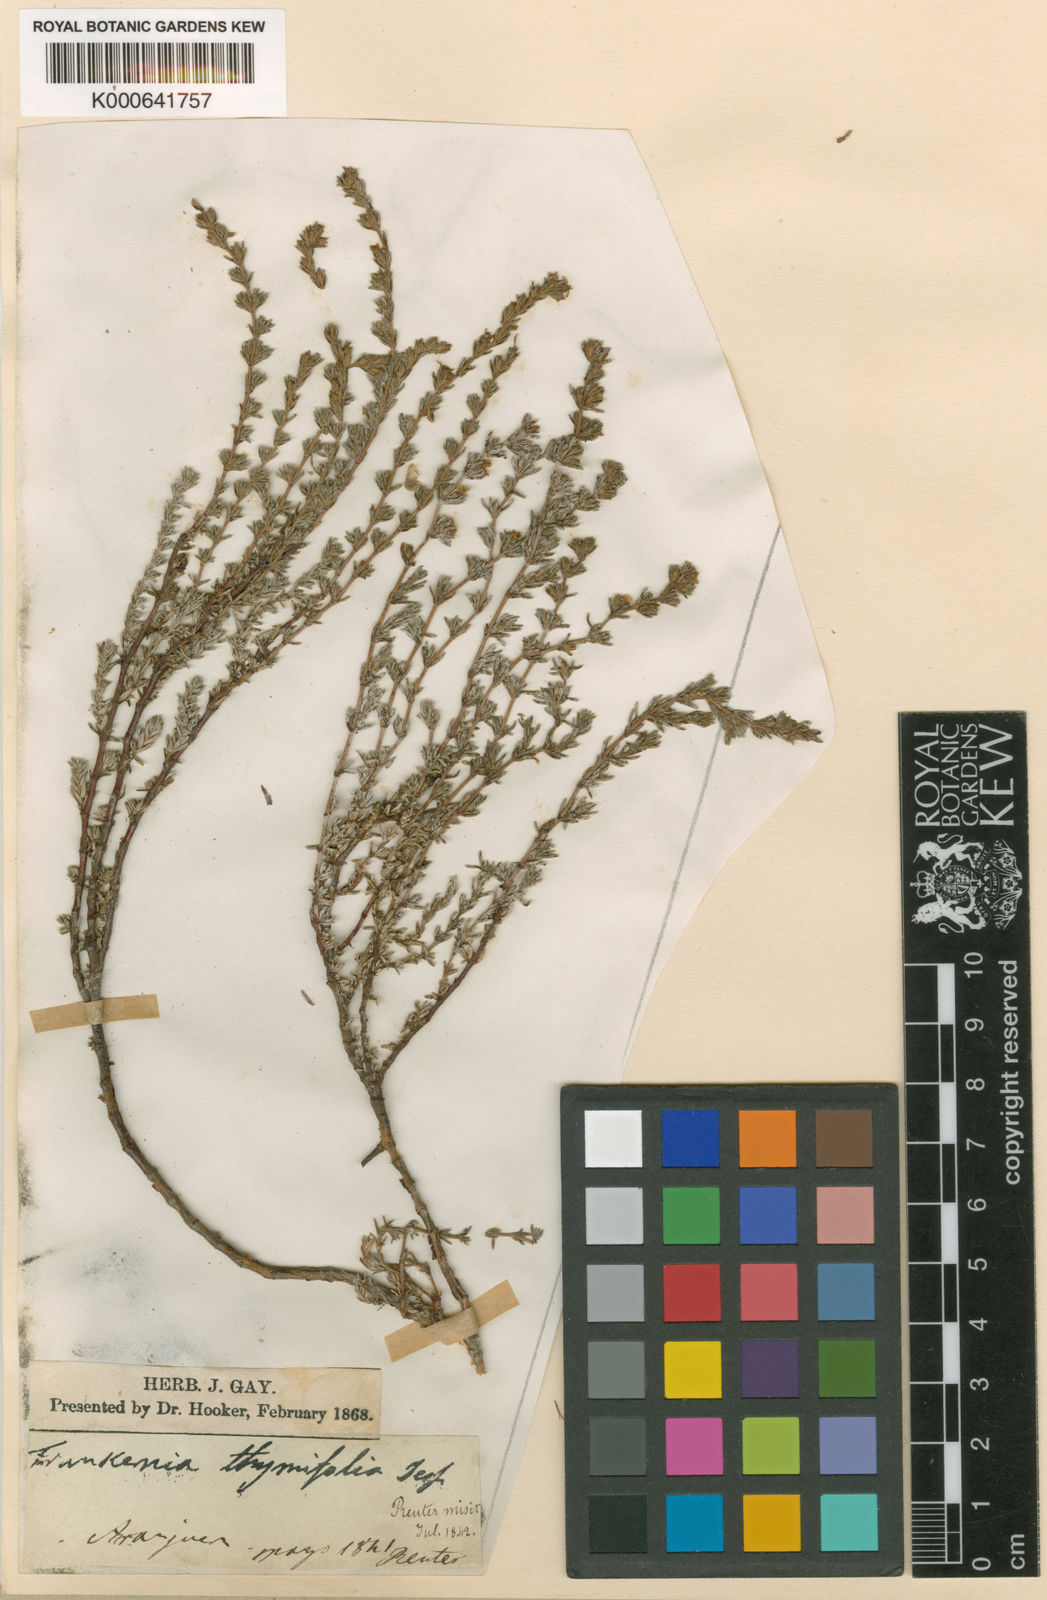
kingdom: Plantae
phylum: Tracheophyta
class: Magnoliopsida
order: Caryophyllales
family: Frankeniaceae
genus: Frankenia
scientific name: Frankenia thymifolia
